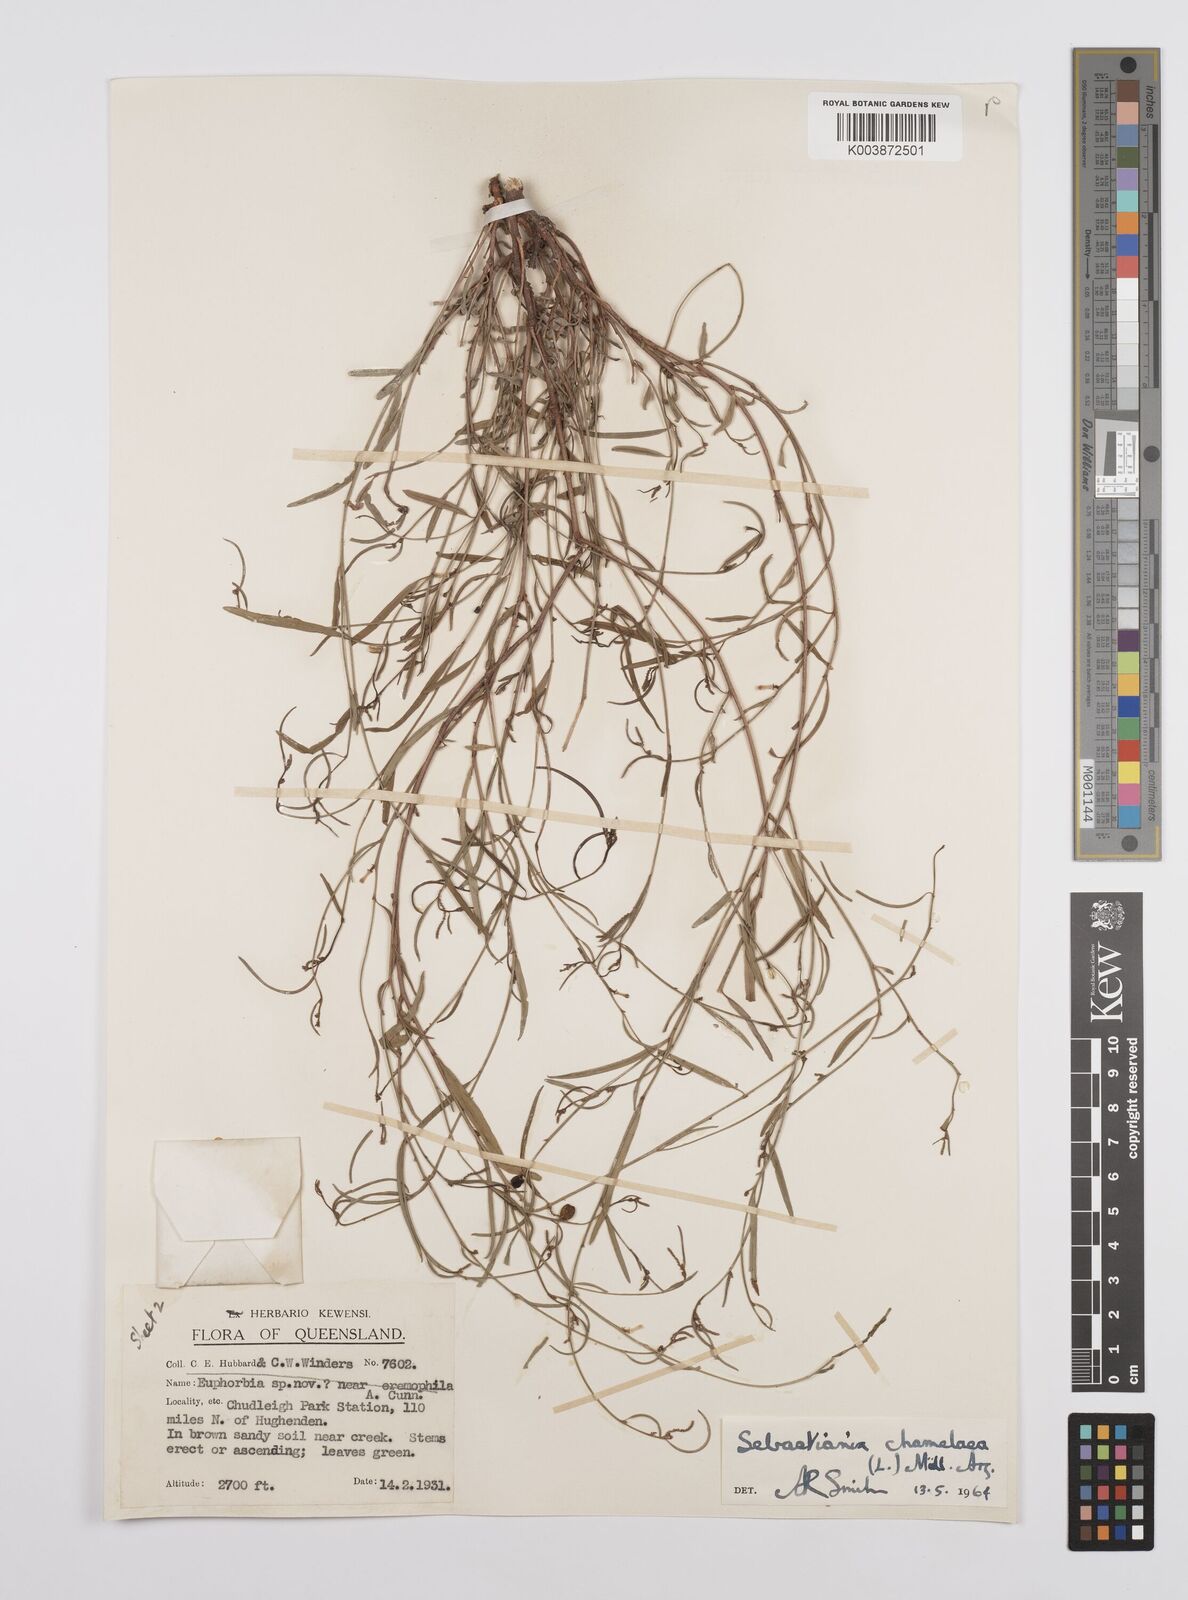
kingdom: Plantae
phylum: Tracheophyta
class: Magnoliopsida
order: Malpighiales
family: Euphorbiaceae
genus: Microstachys
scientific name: Microstachys chamaelea
